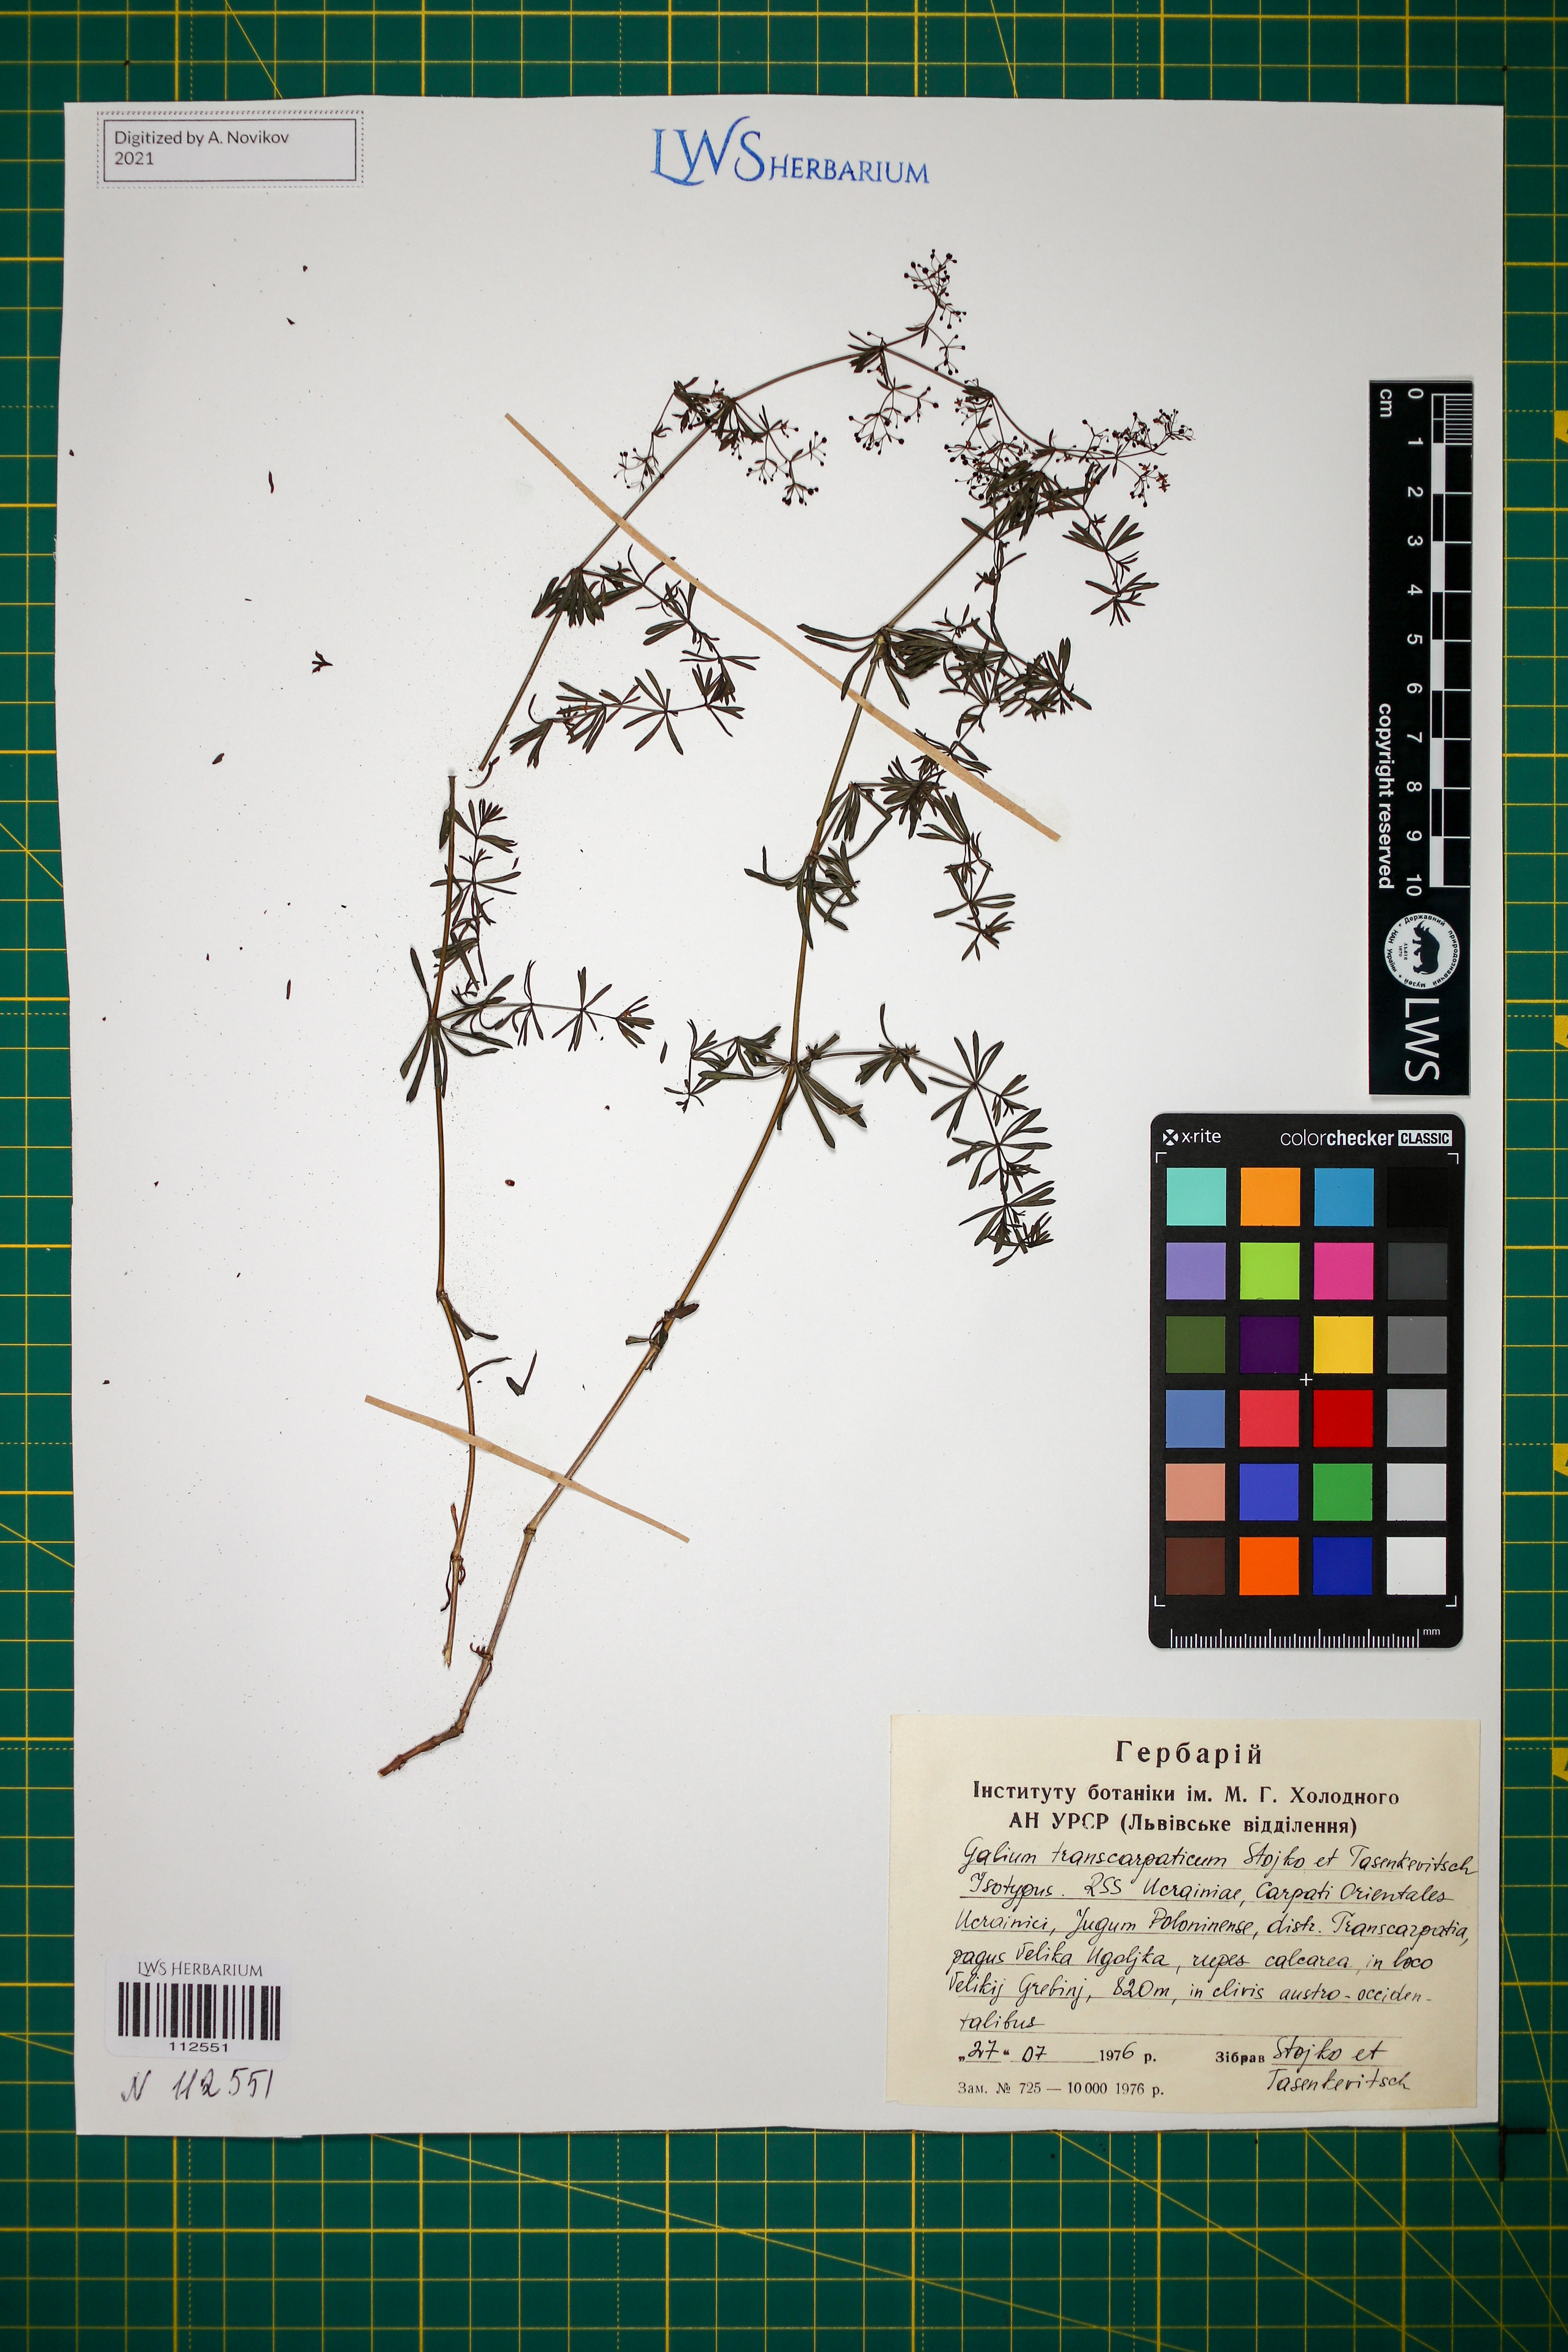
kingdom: Plantae
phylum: Tracheophyta
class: Magnoliopsida
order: Gentianales
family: Rubiaceae
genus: Galium
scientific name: Galium transcarpaticum
